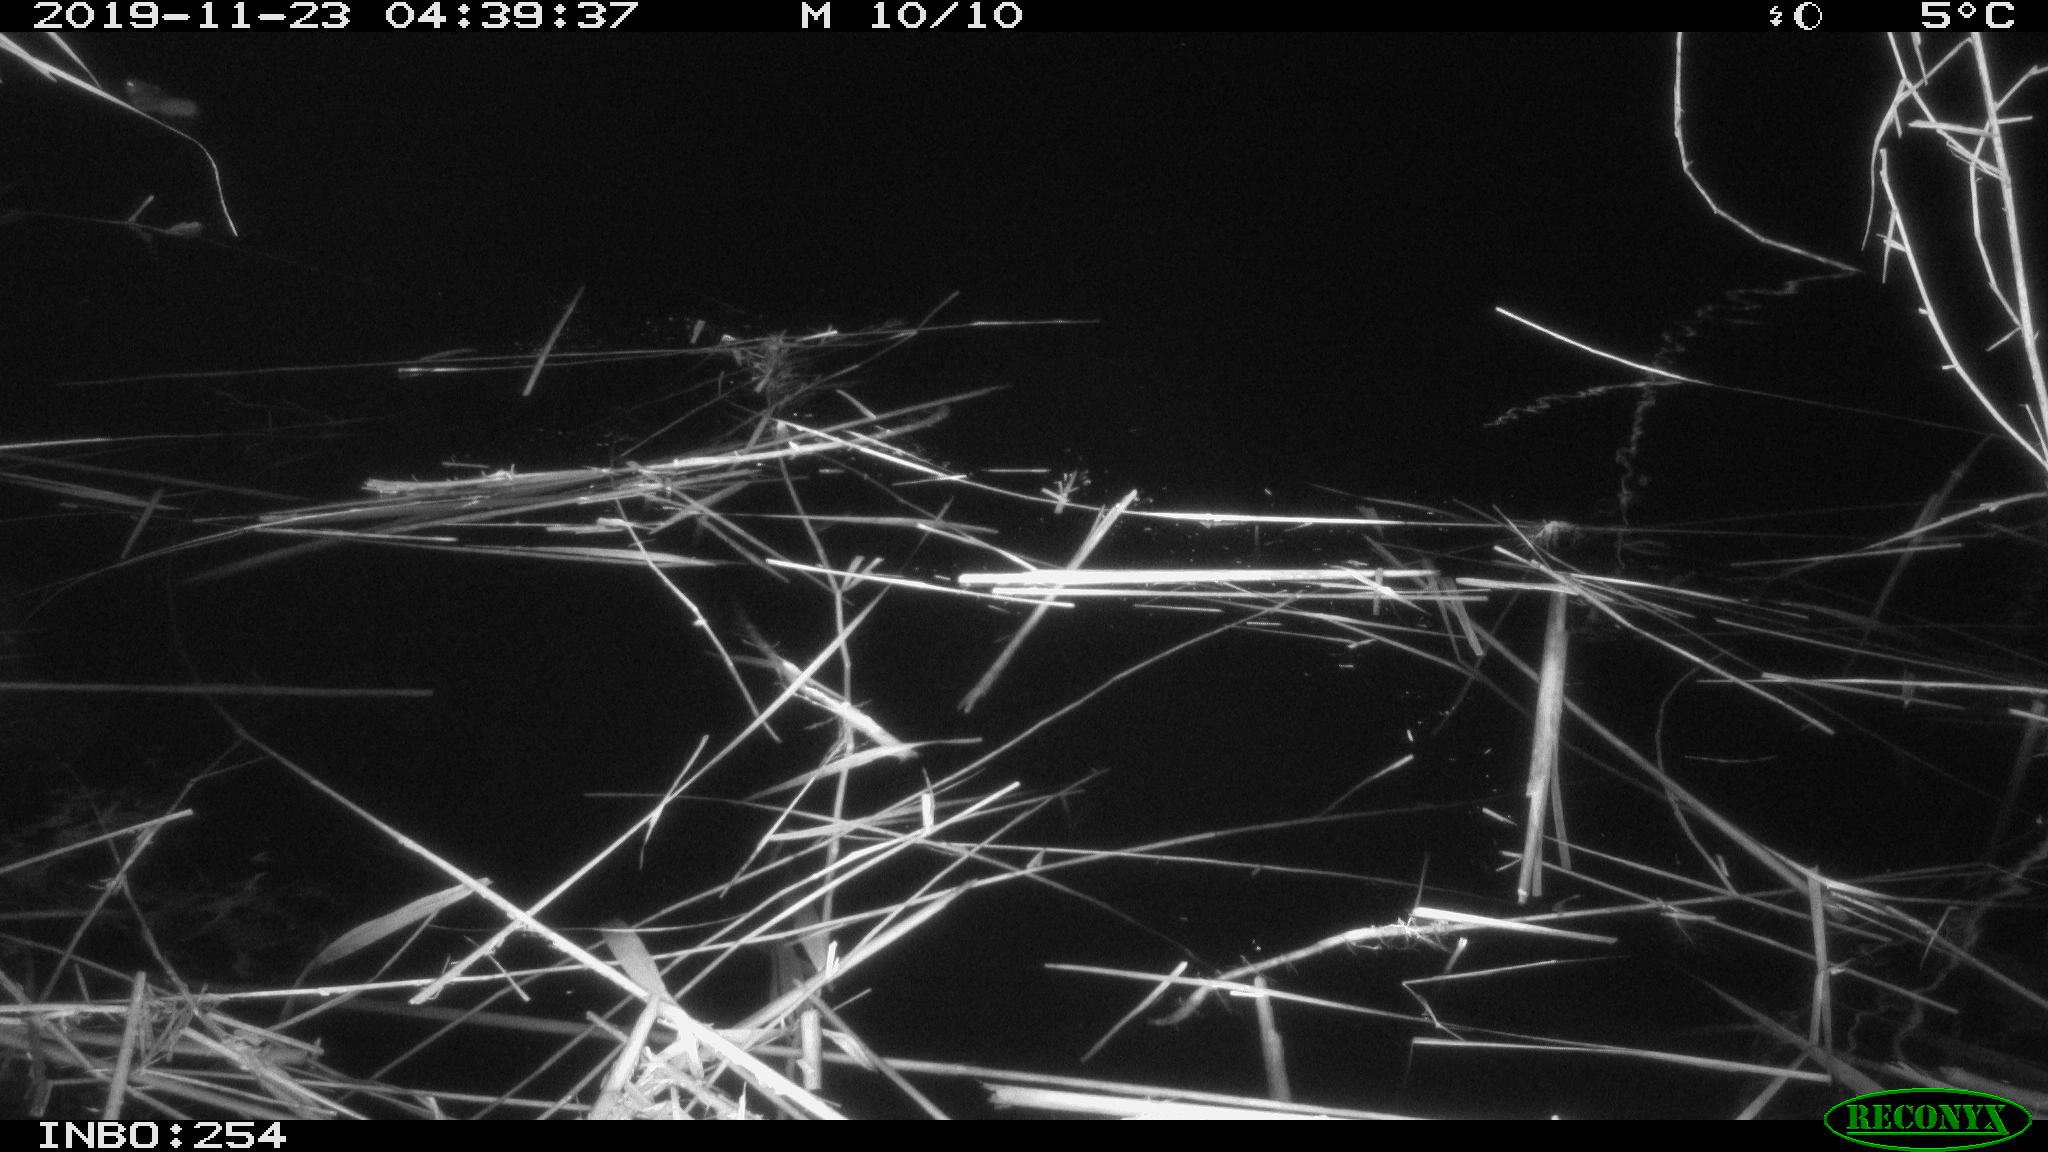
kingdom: Animalia
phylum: Chordata
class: Mammalia
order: Rodentia
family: Muridae
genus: Rattus
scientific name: Rattus norvegicus
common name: Brown rat
